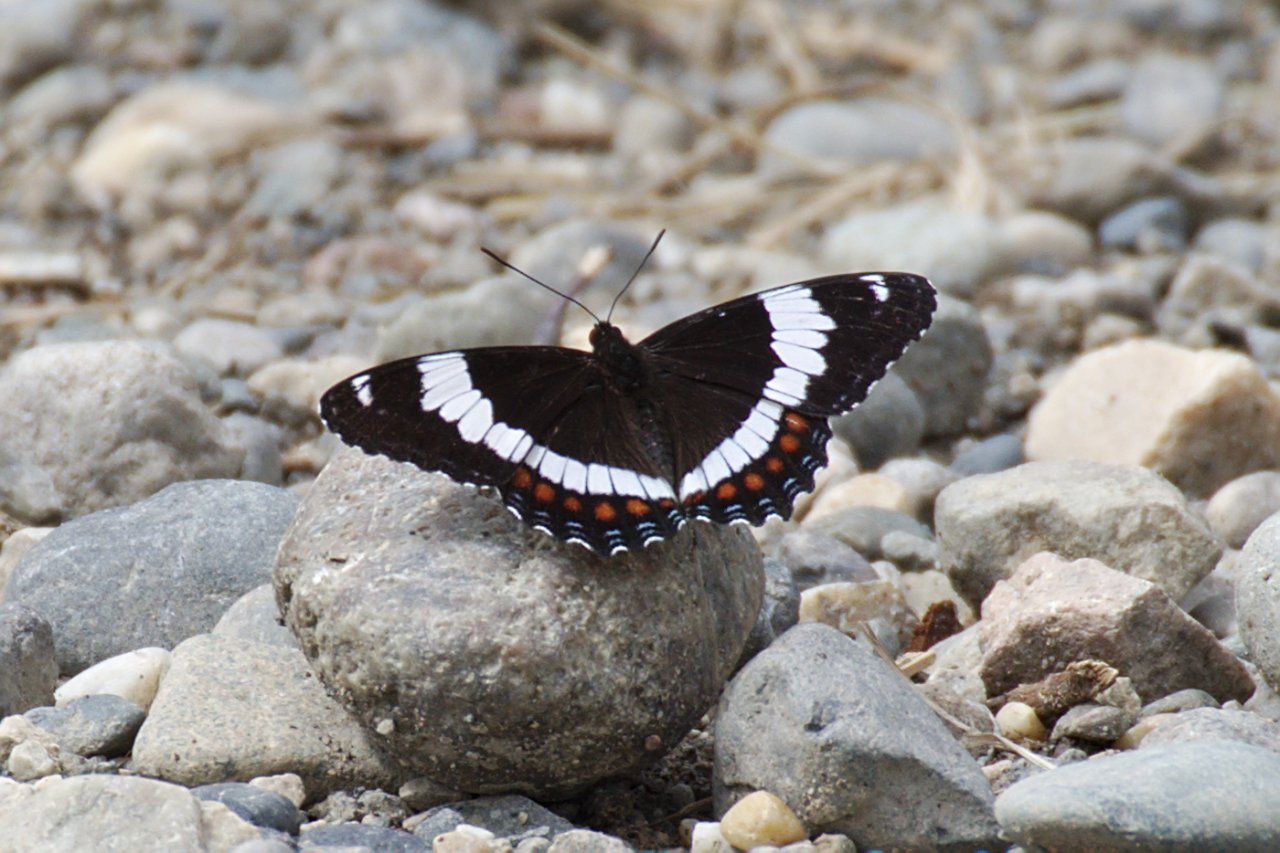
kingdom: Animalia
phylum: Arthropoda
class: Insecta
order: Lepidoptera
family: Nymphalidae
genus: Limenitis
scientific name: Limenitis arthemis
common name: Red-spotted Admiral
